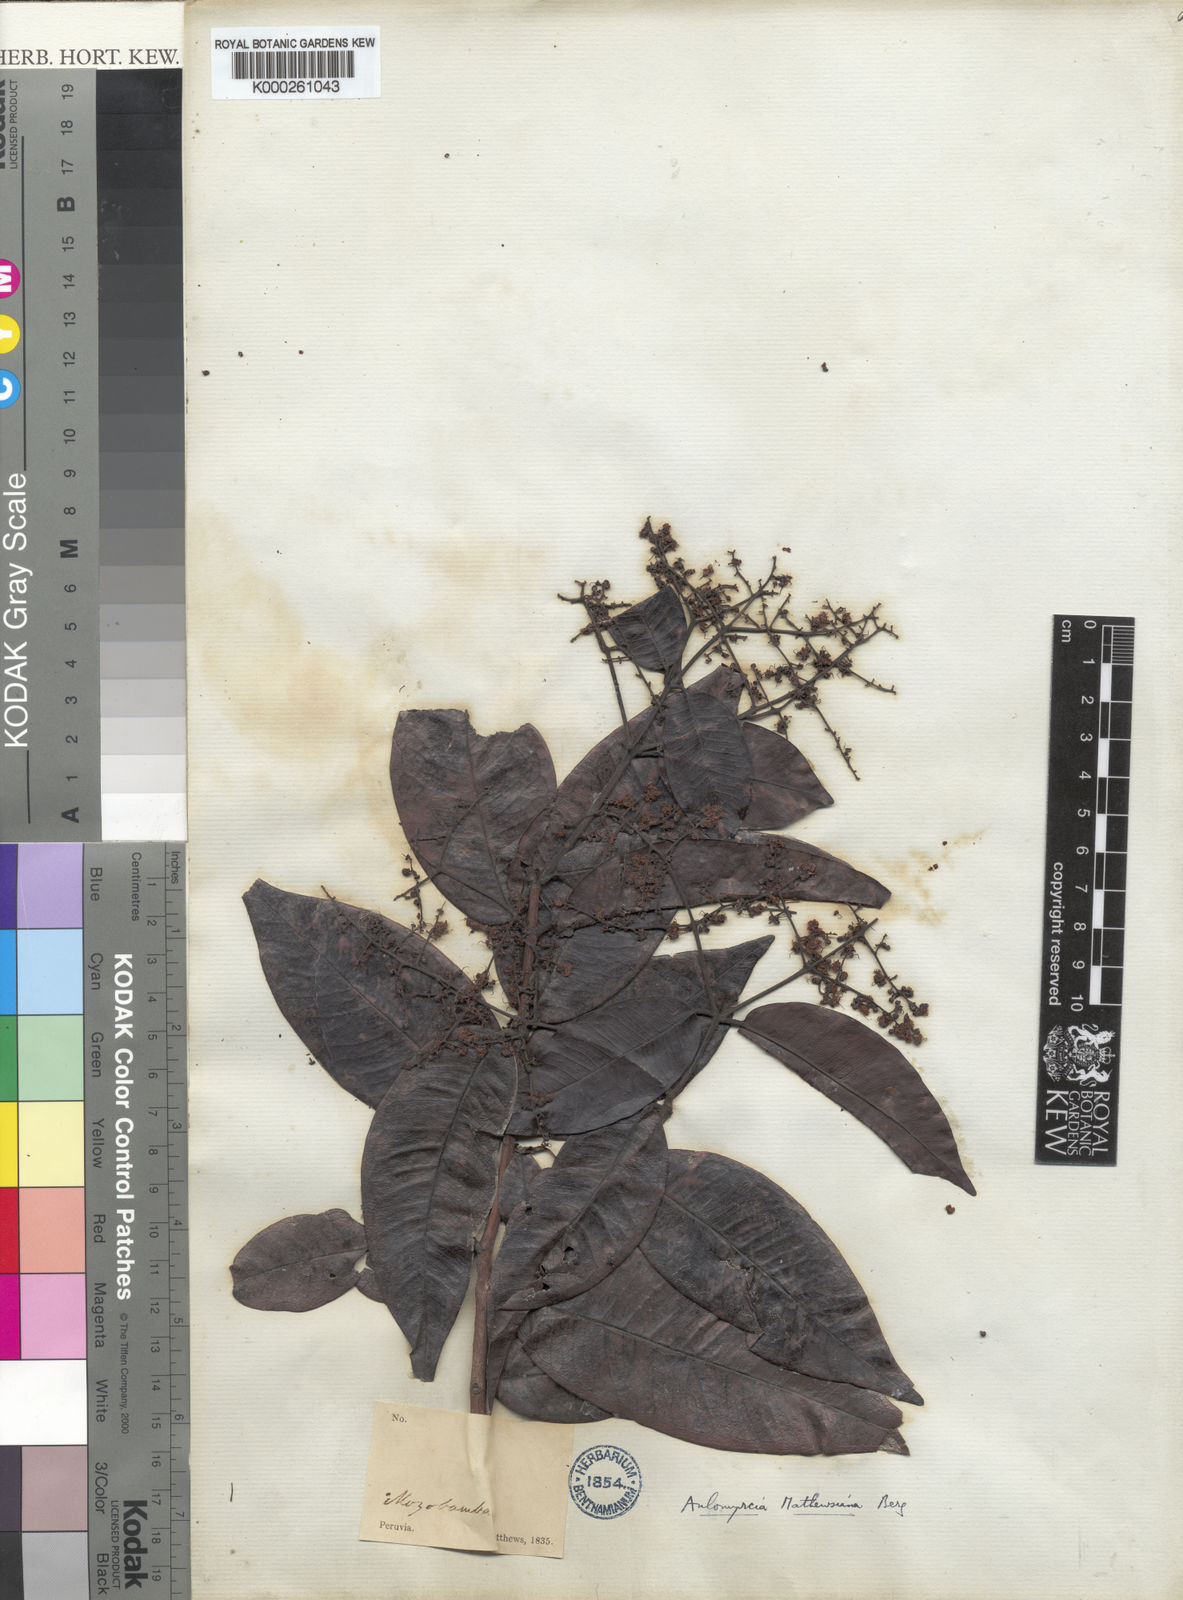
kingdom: Plantae
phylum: Tracheophyta
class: Magnoliopsida
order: Myrtales
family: Myrtaceae
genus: Myrcia
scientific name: Myrcia mathewsiana
